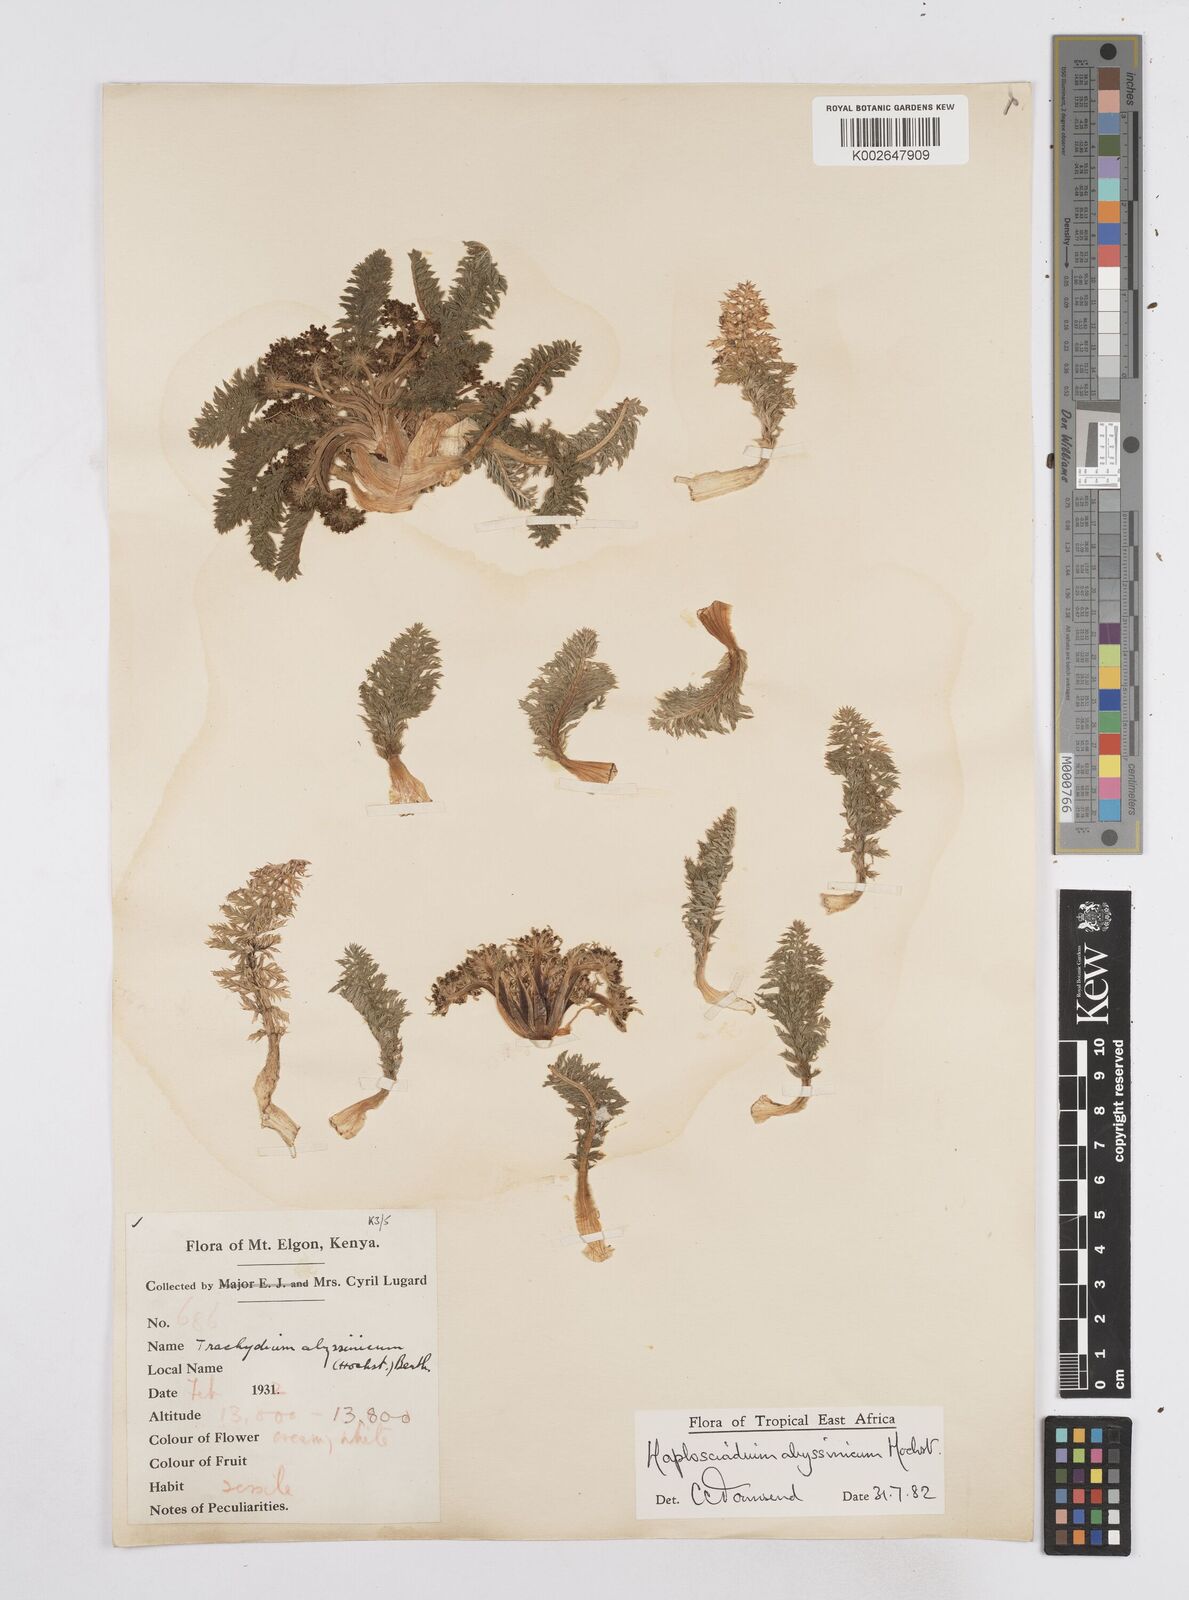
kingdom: Plantae
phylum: Tracheophyta
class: Magnoliopsida
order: Apiales
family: Apiaceae
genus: Haplosciadium
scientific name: Haplosciadium abyssinicum
